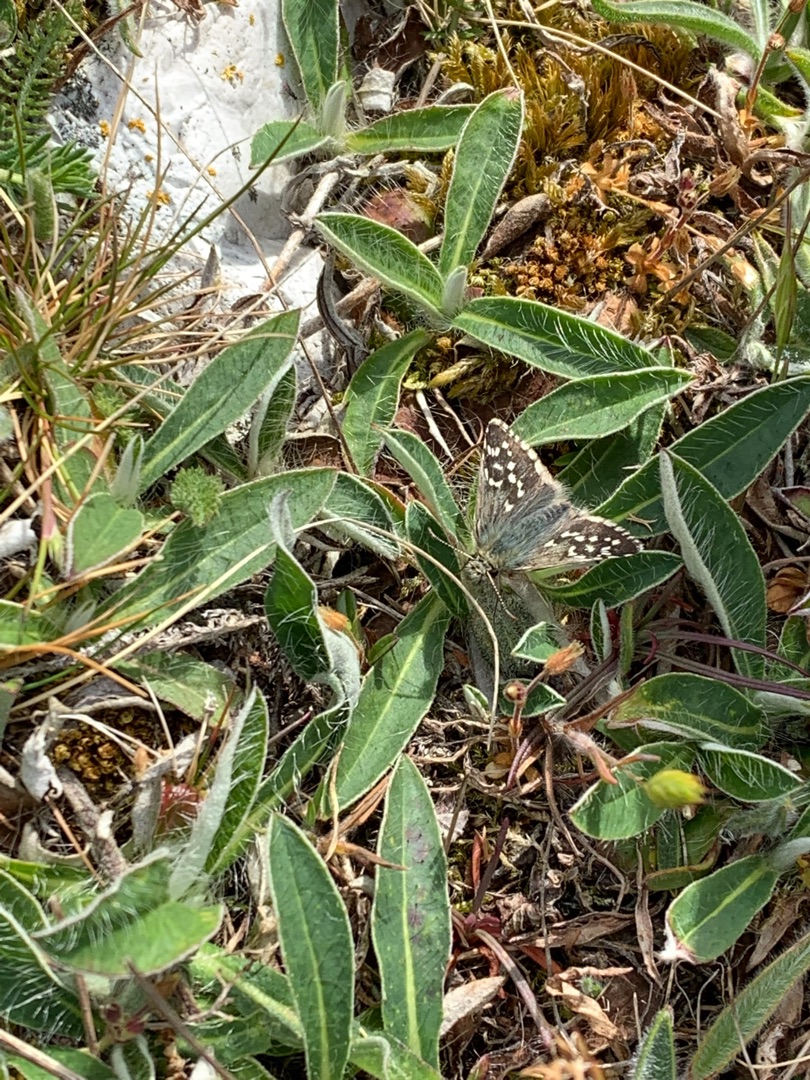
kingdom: Animalia
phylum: Arthropoda
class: Insecta
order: Lepidoptera
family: Hesperiidae
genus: Pyrgus
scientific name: Pyrgus malvae
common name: Spættet bredpande
